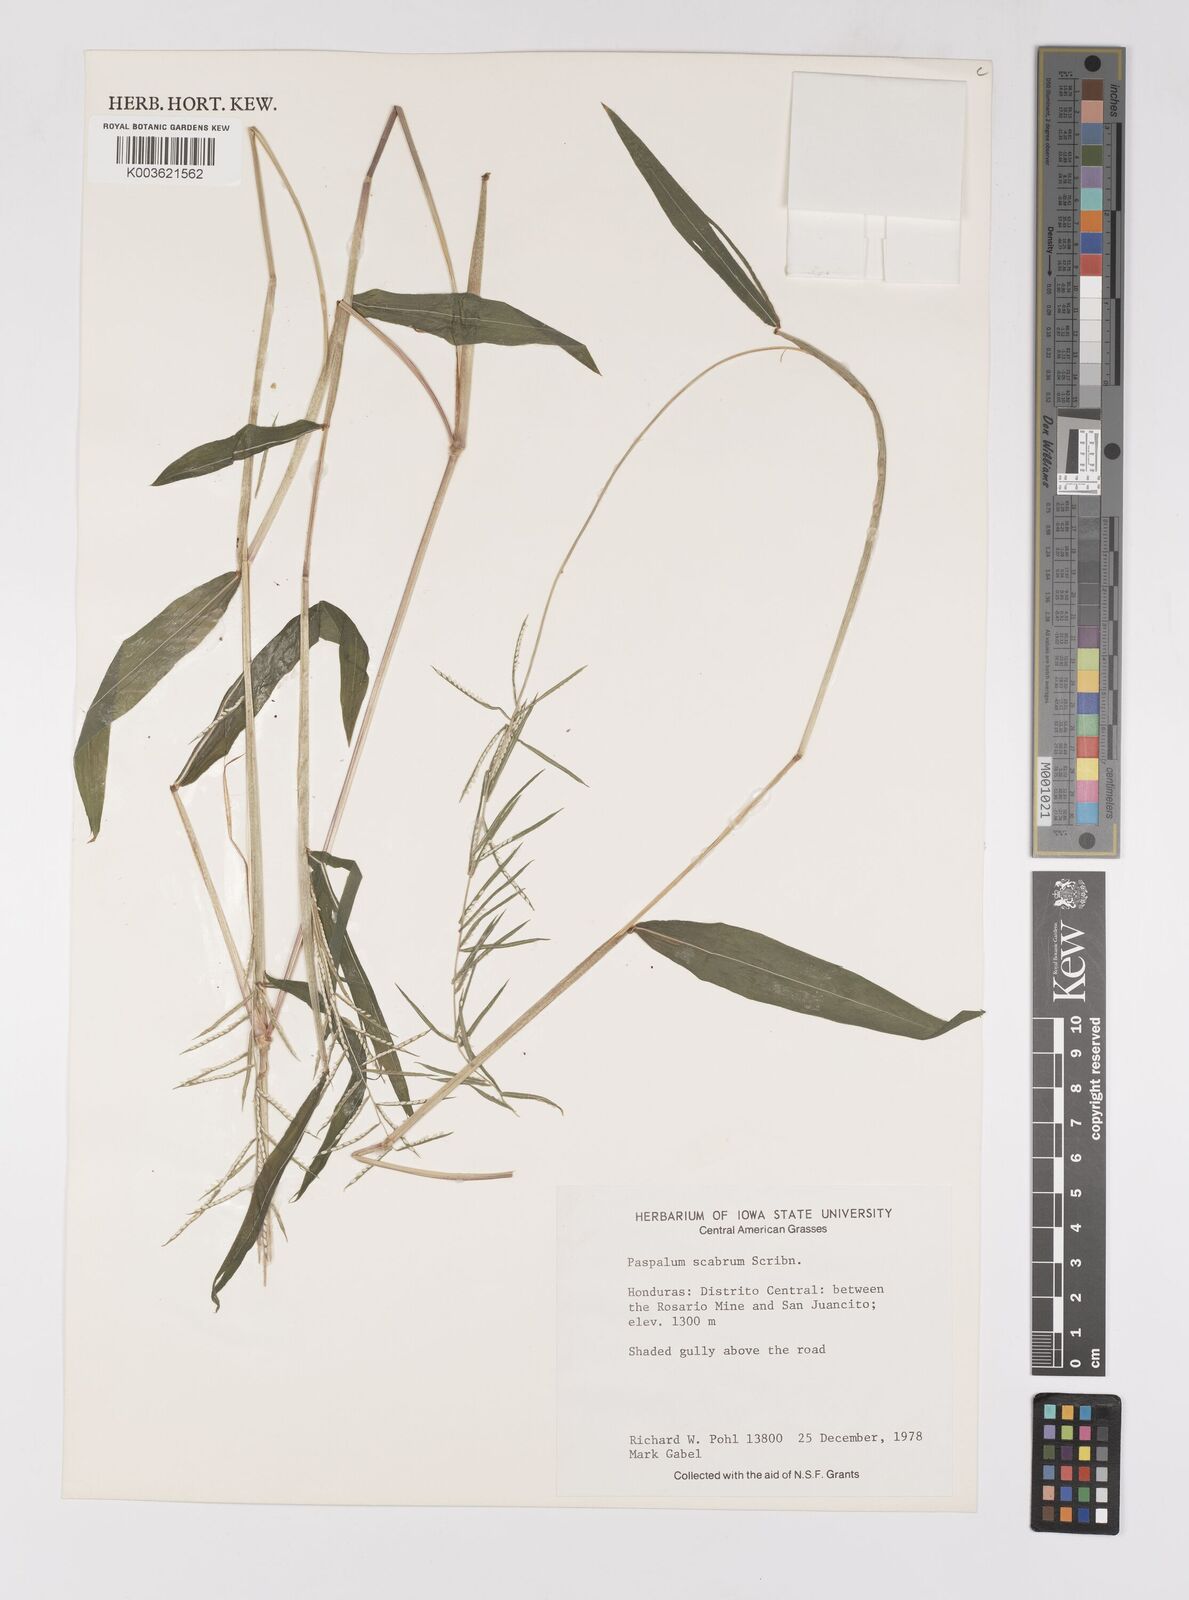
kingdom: Plantae
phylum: Tracheophyta
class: Liliopsida
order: Poales
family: Poaceae
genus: Paspalum
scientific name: Paspalum candidum
